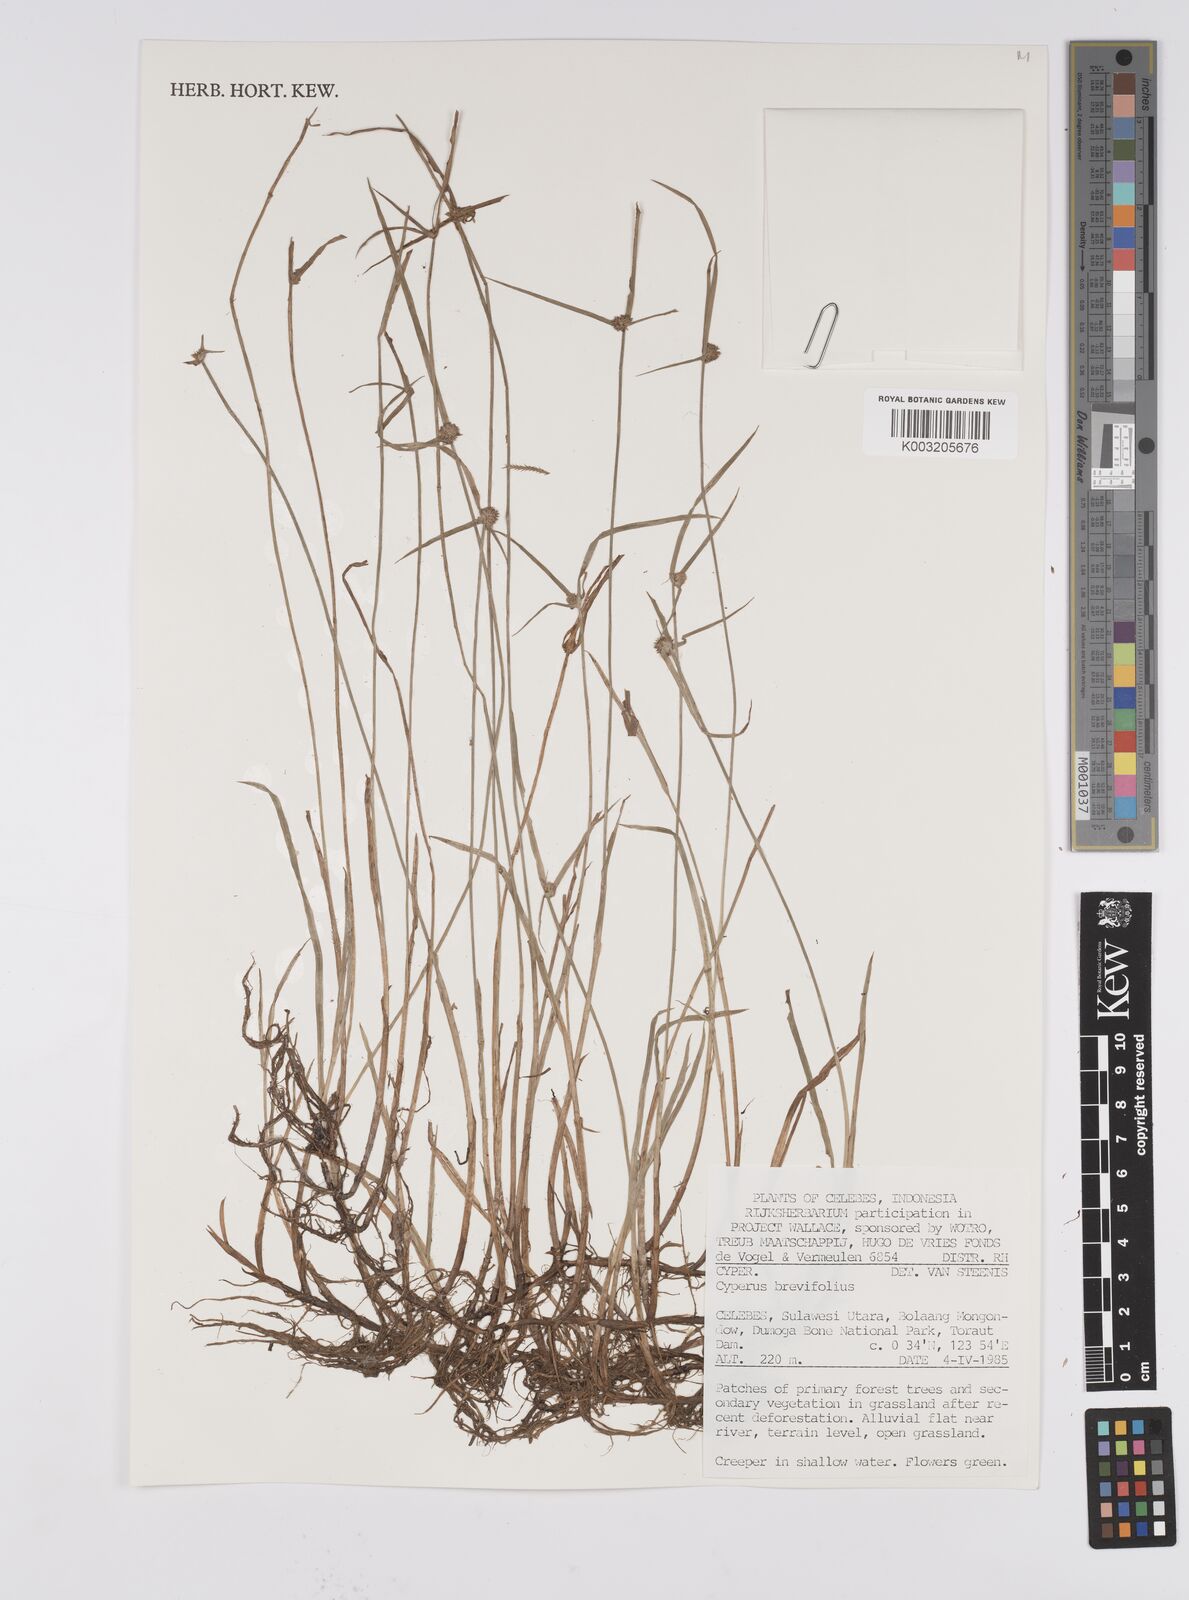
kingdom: Plantae
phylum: Tracheophyta
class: Liliopsida
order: Poales
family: Cyperaceae
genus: Cyperus
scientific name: Cyperus brevifolius
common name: Globe kyllinga
